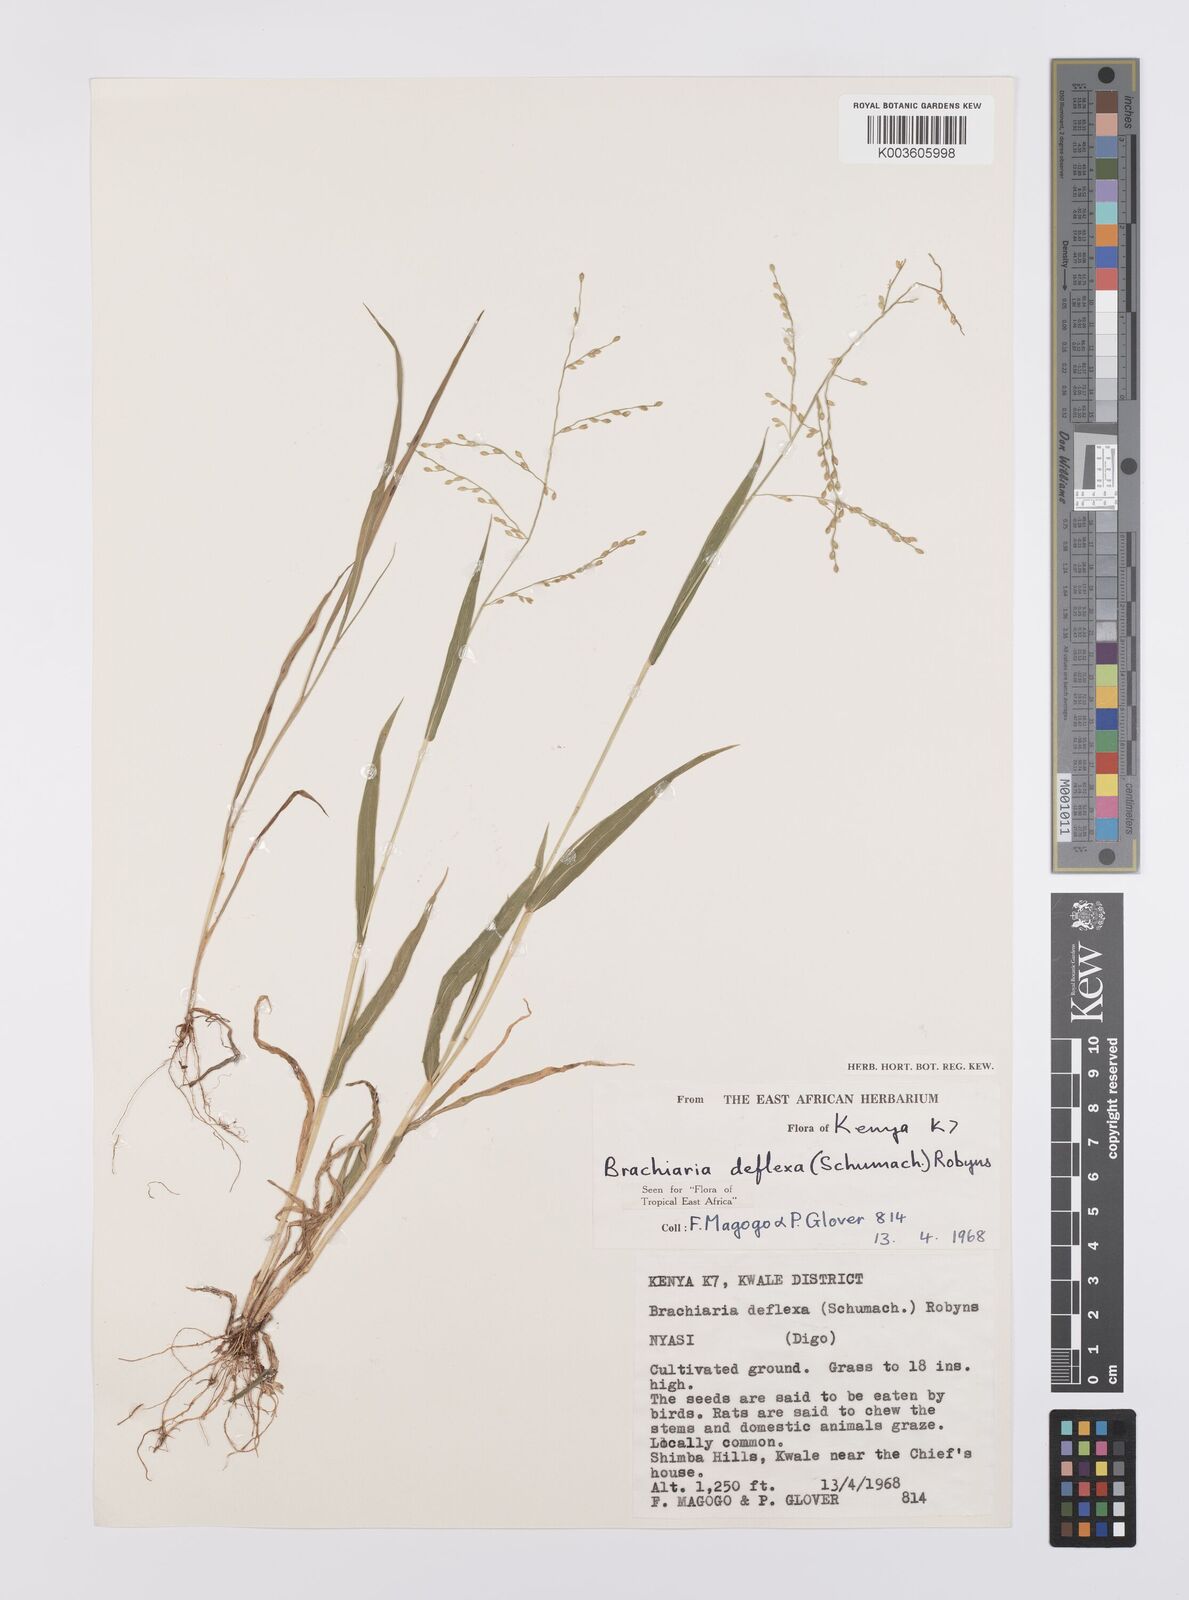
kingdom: Plantae
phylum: Tracheophyta
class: Liliopsida
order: Poales
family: Poaceae
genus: Urochloa
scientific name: Urochloa deflexa
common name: Guinea millet
